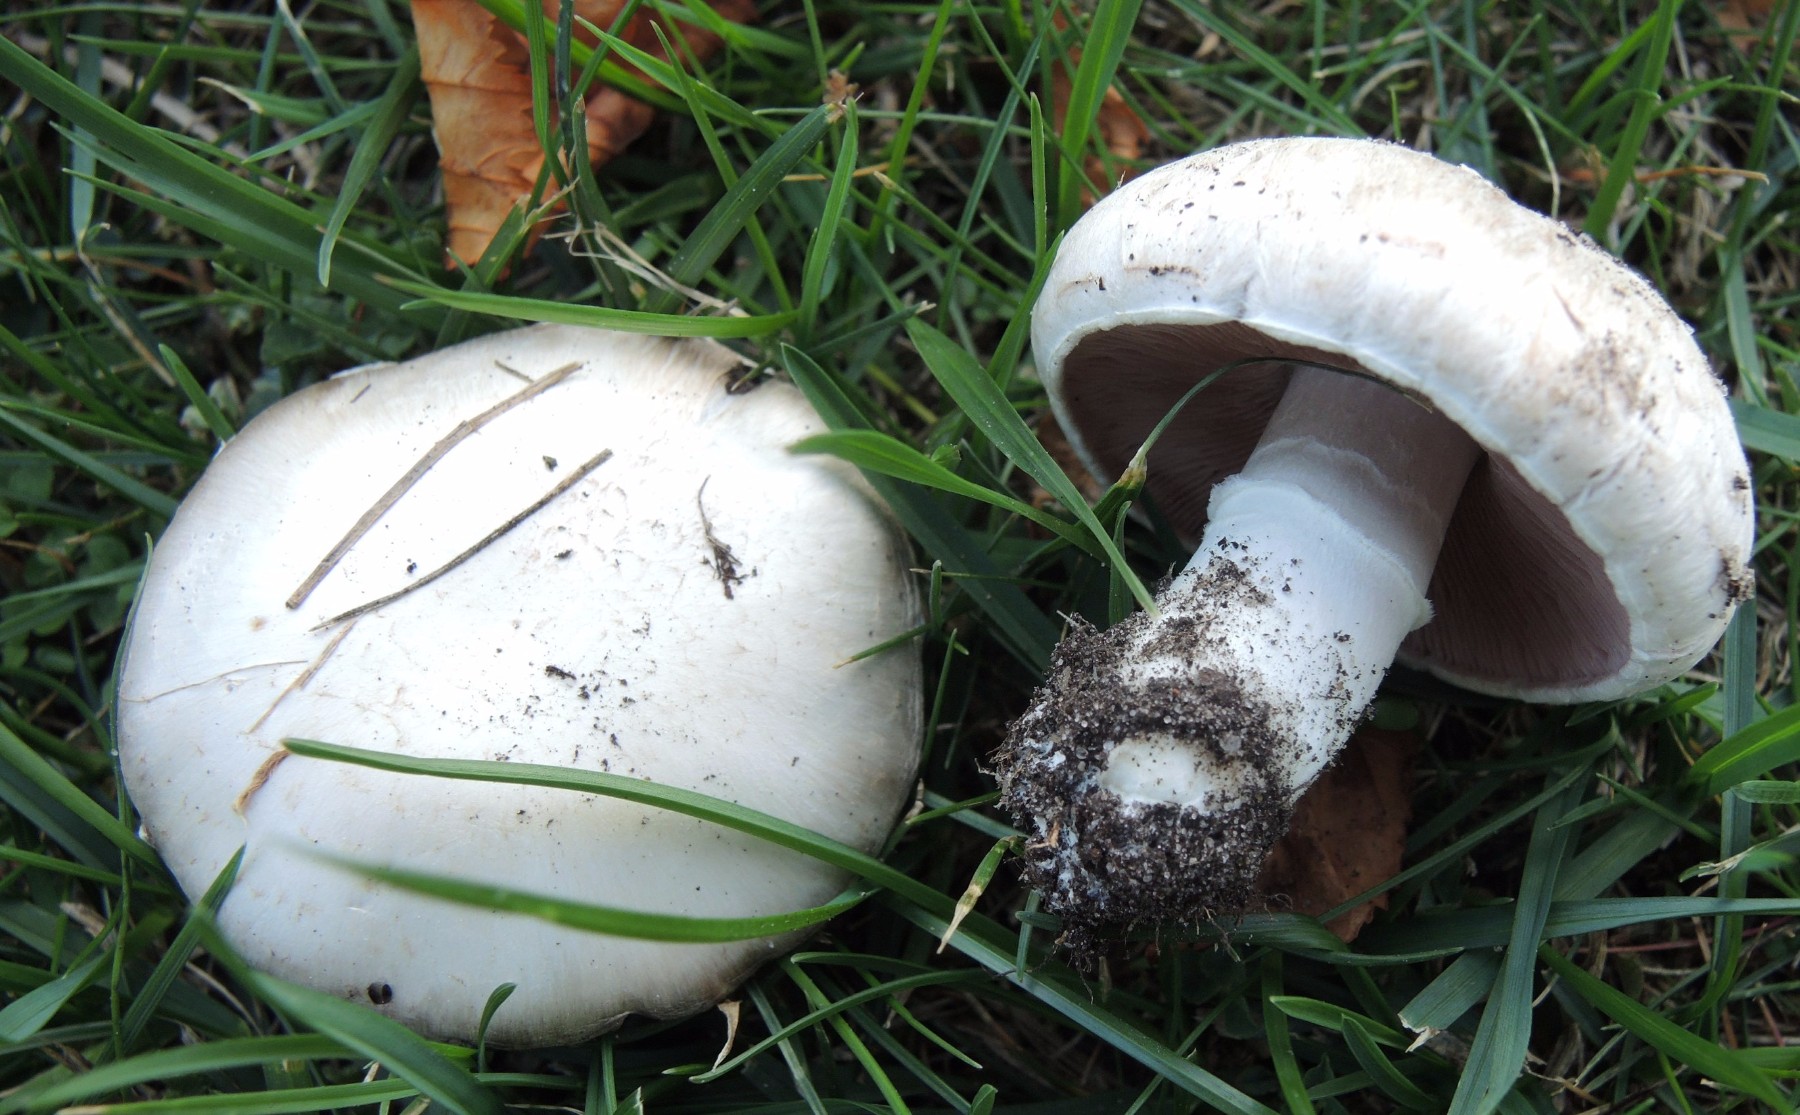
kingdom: Fungi
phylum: Basidiomycota
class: Agaricomycetes
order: Agaricales
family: Agaricaceae
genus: Agaricus
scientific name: Agaricus campestris
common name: mark-champignon
